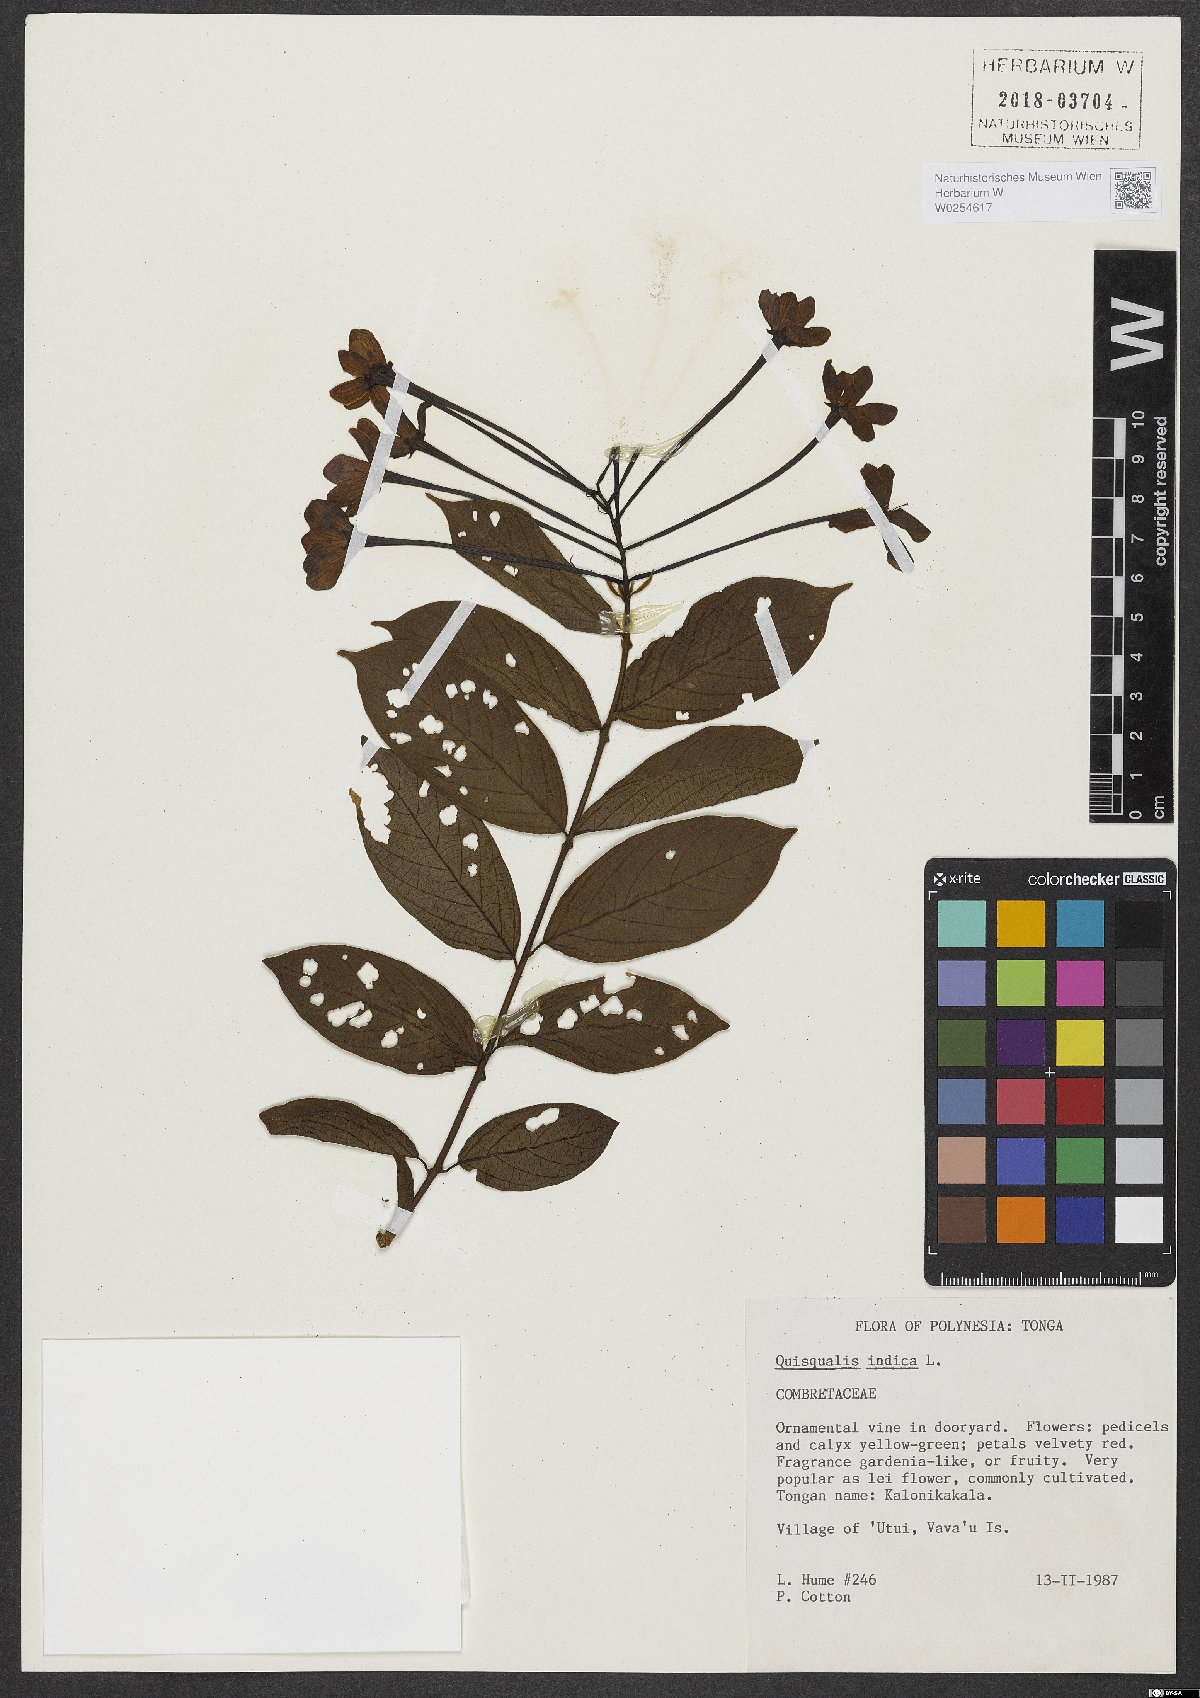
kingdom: Plantae
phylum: Tracheophyta
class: Magnoliopsida
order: Myrtales
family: Combretaceae
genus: Combretum
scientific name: Combretum indicum
